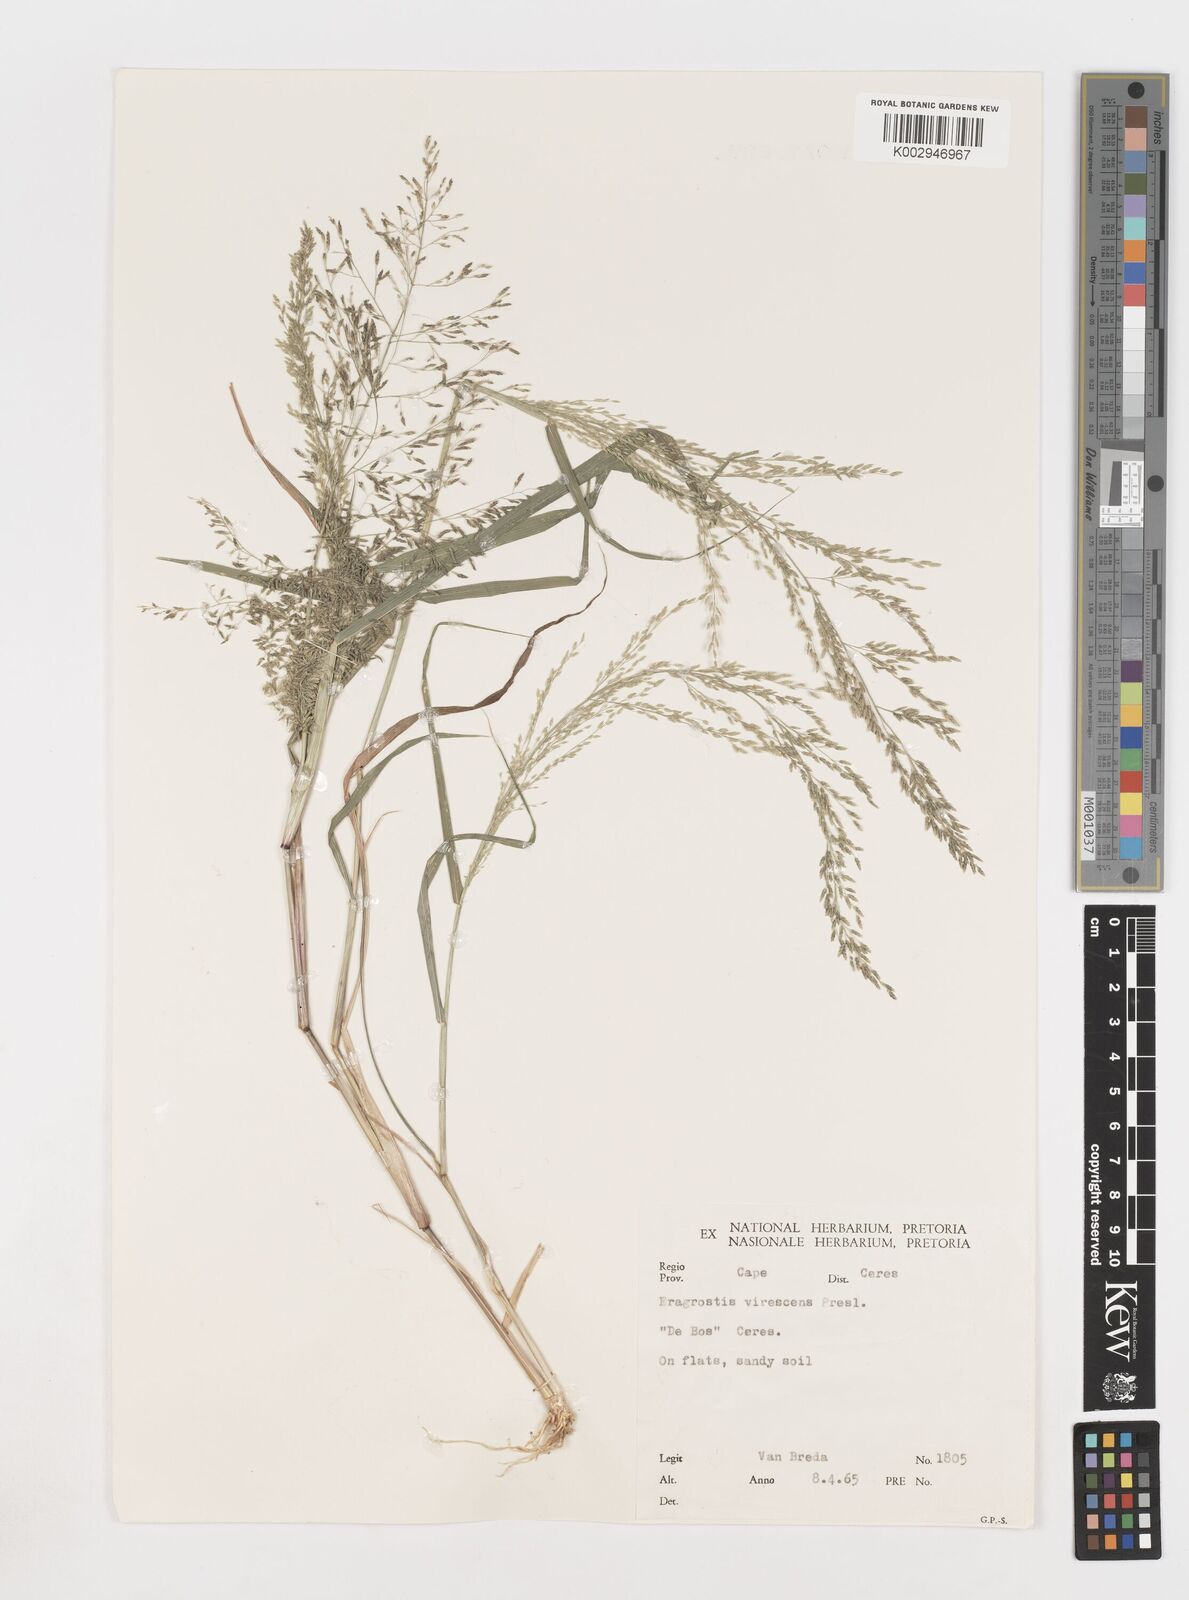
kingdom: Plantae
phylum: Tracheophyta
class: Liliopsida
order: Poales
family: Poaceae
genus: Eragrostis
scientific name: Eragrostis
